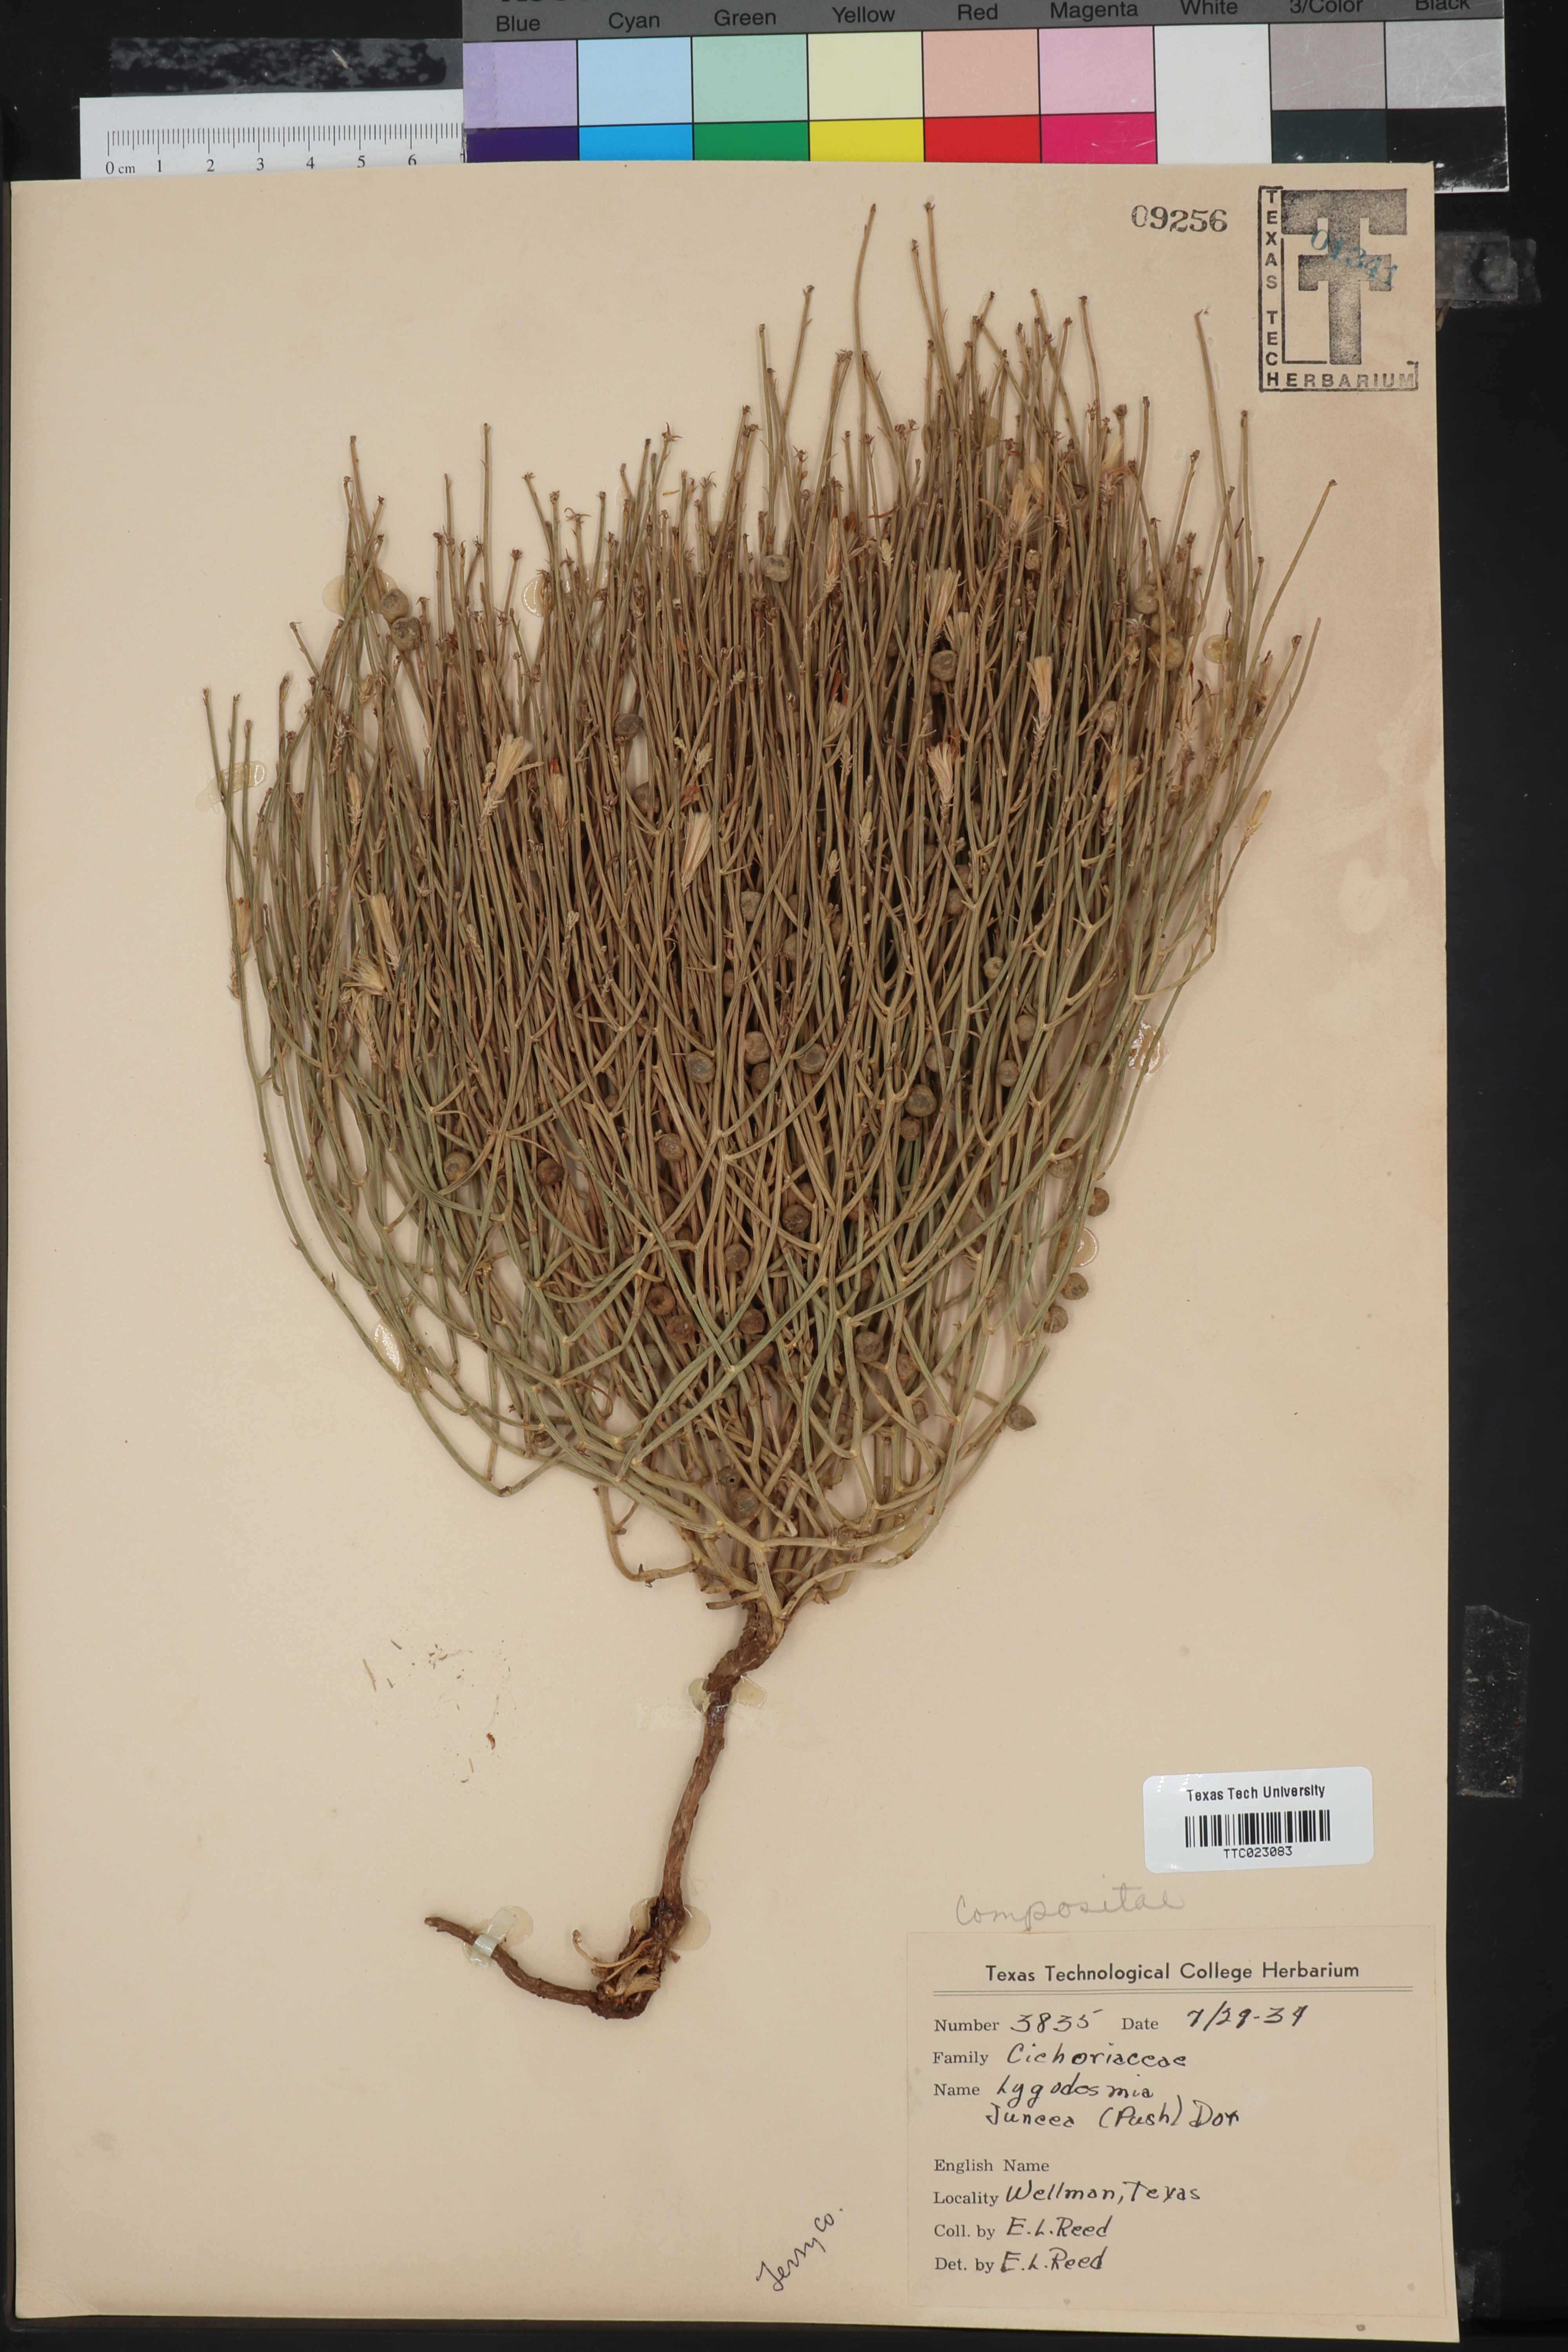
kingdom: Plantae
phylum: Tracheophyta
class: Magnoliopsida
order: Asterales
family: Asteraceae
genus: Lygodesmia
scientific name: Lygodesmia juncea
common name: Common skeletonweed
